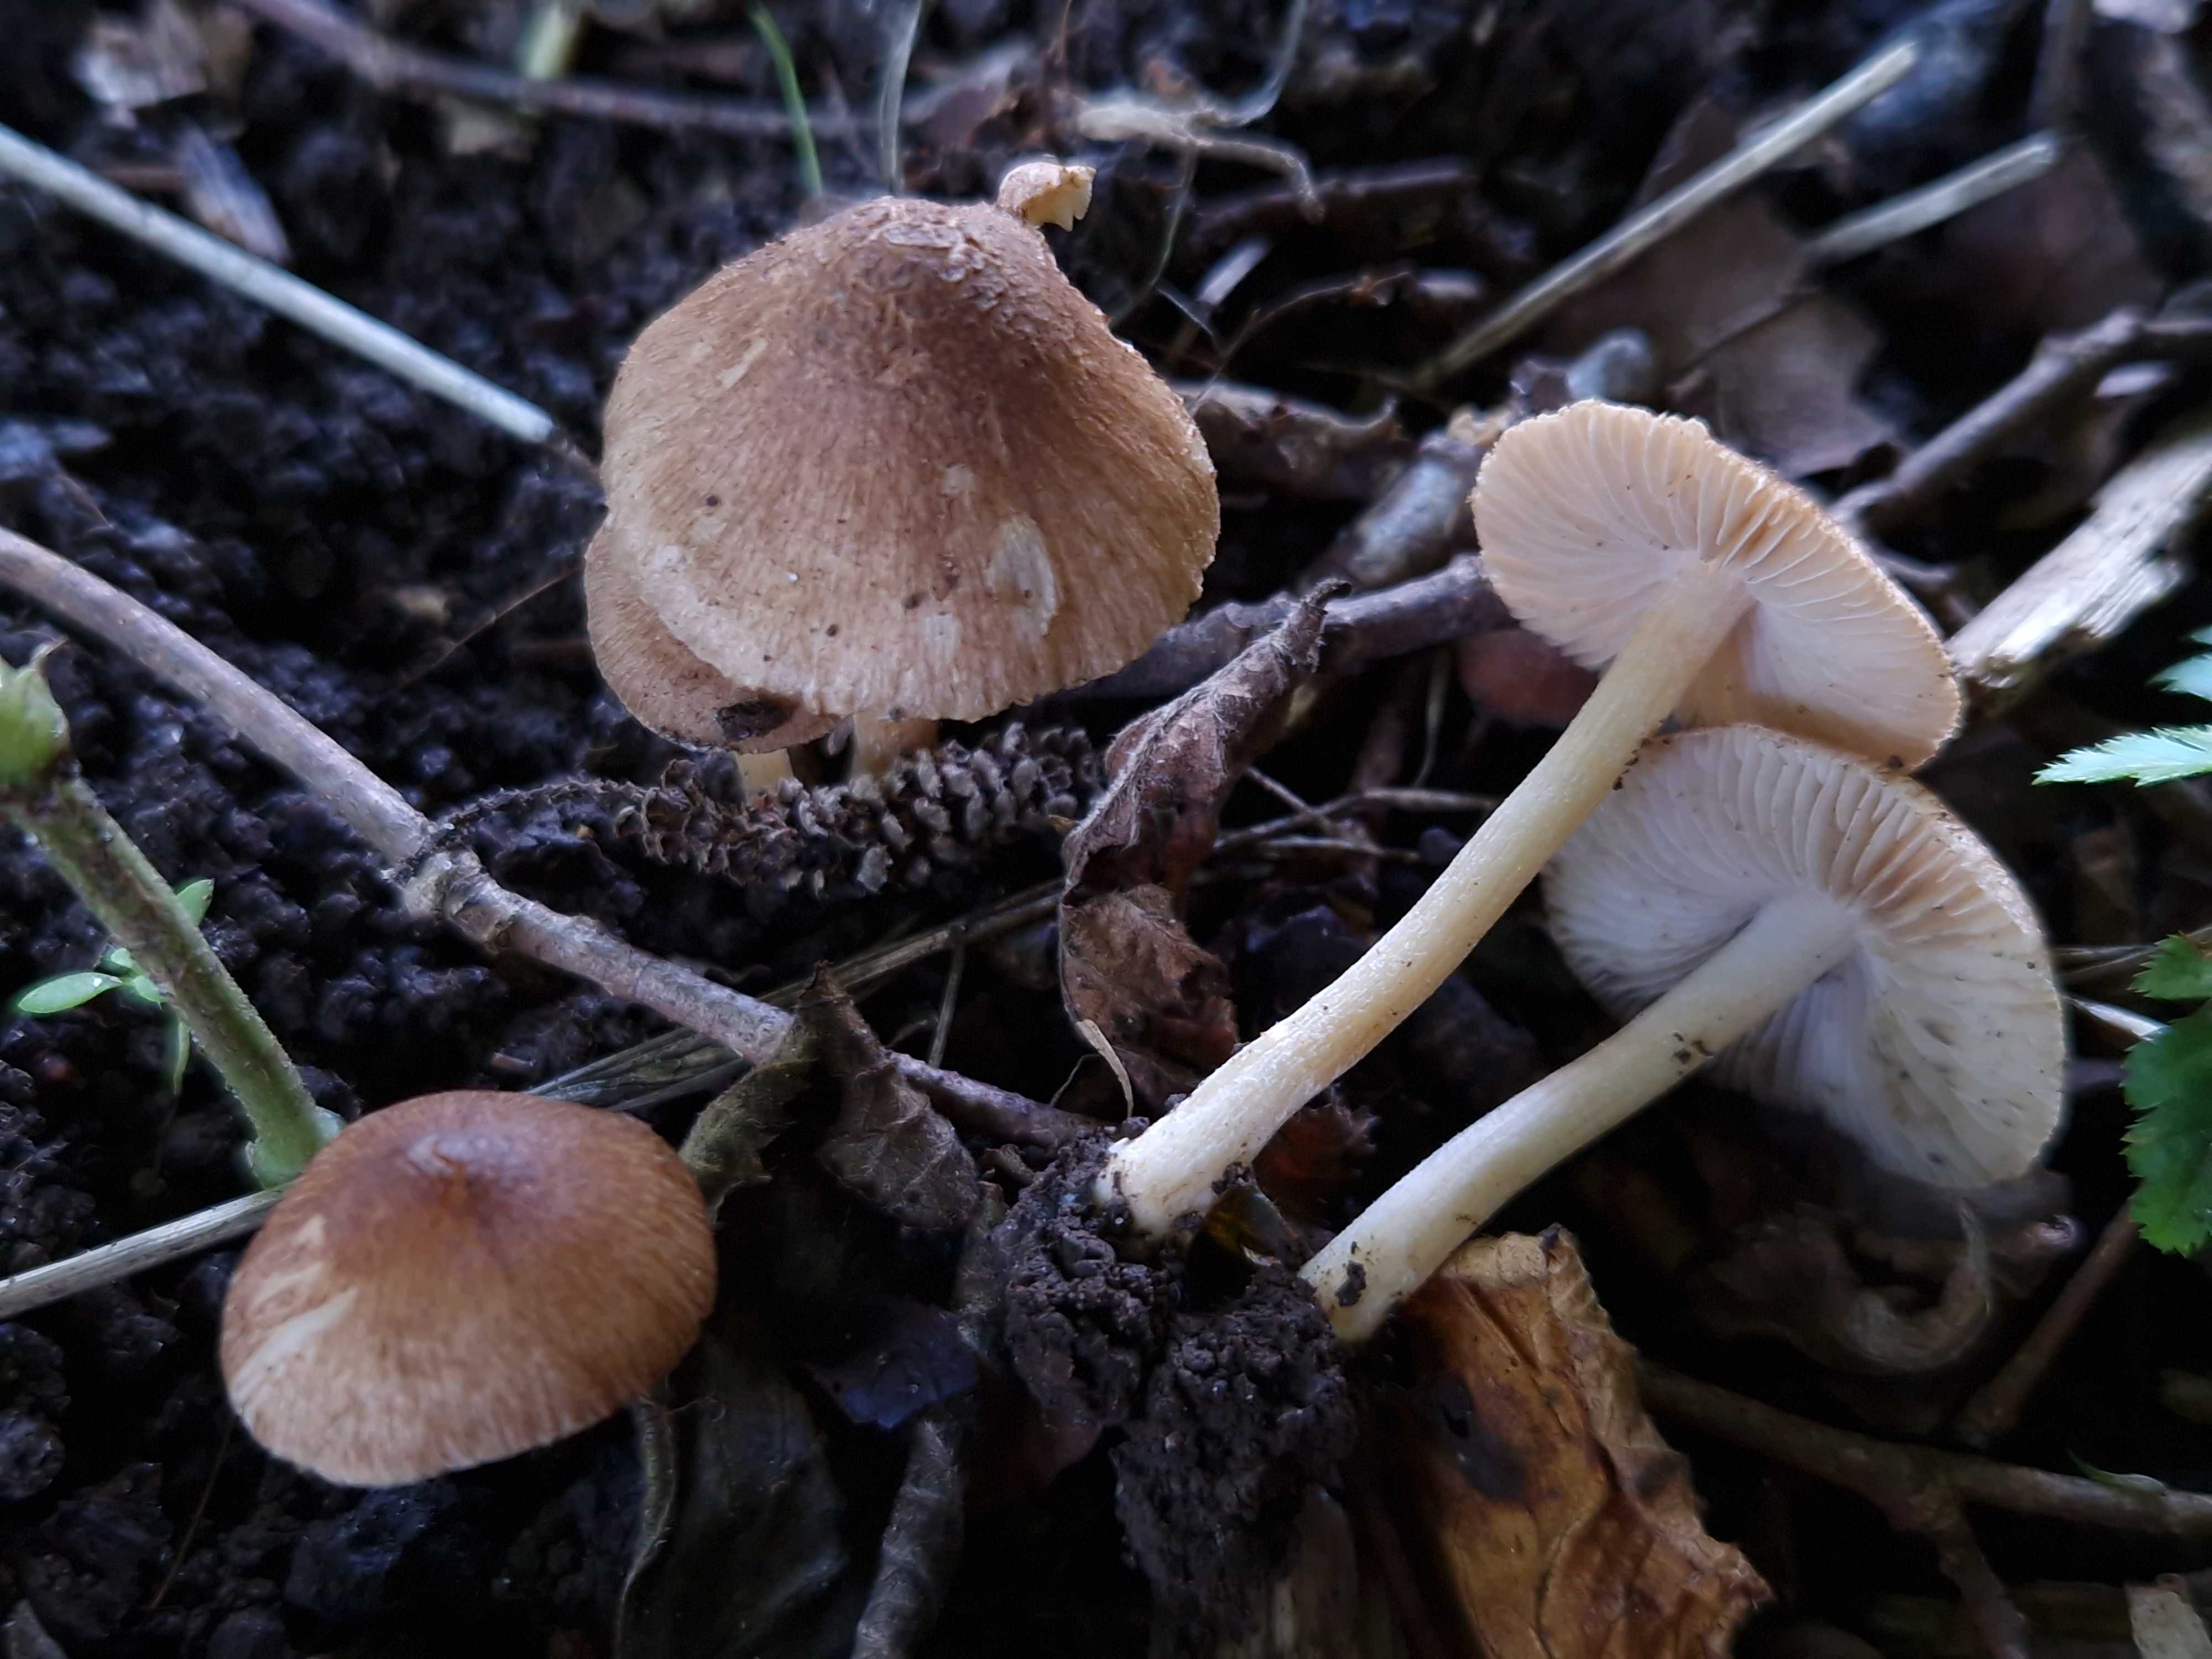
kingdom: Fungi
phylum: Basidiomycota
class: Agaricomycetes
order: Agaricales
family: Inocybaceae
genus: Inocybe
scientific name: Inocybe
